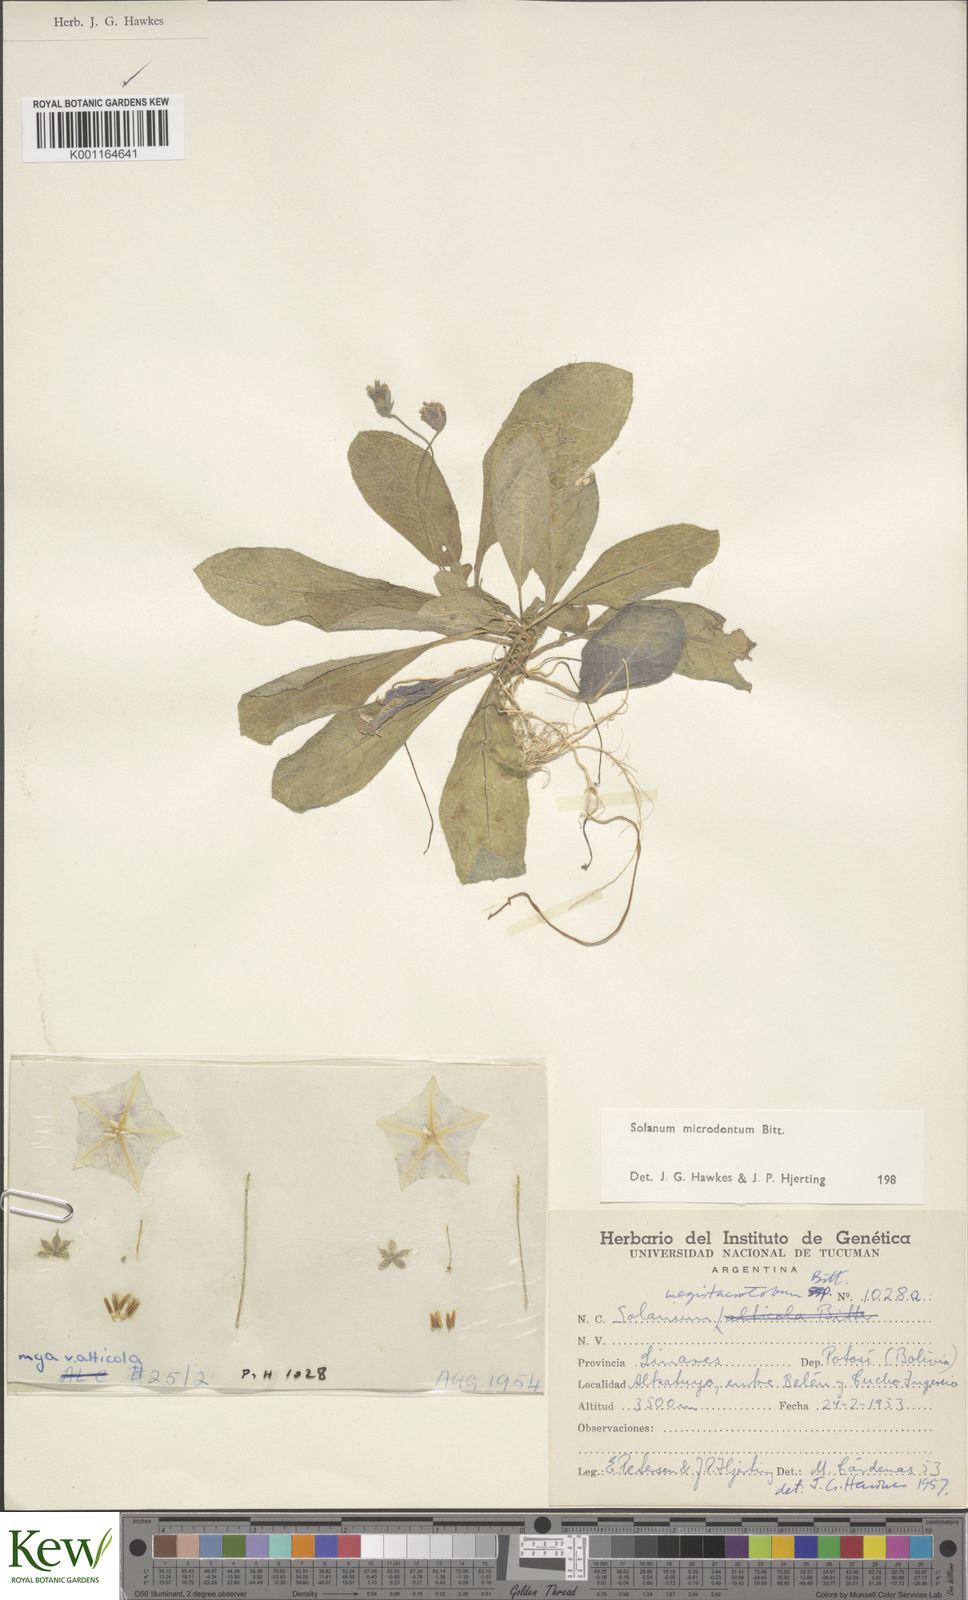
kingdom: Plantae
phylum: Tracheophyta
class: Magnoliopsida
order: Solanales
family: Solanaceae
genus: Solanum
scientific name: Solanum boliviense
